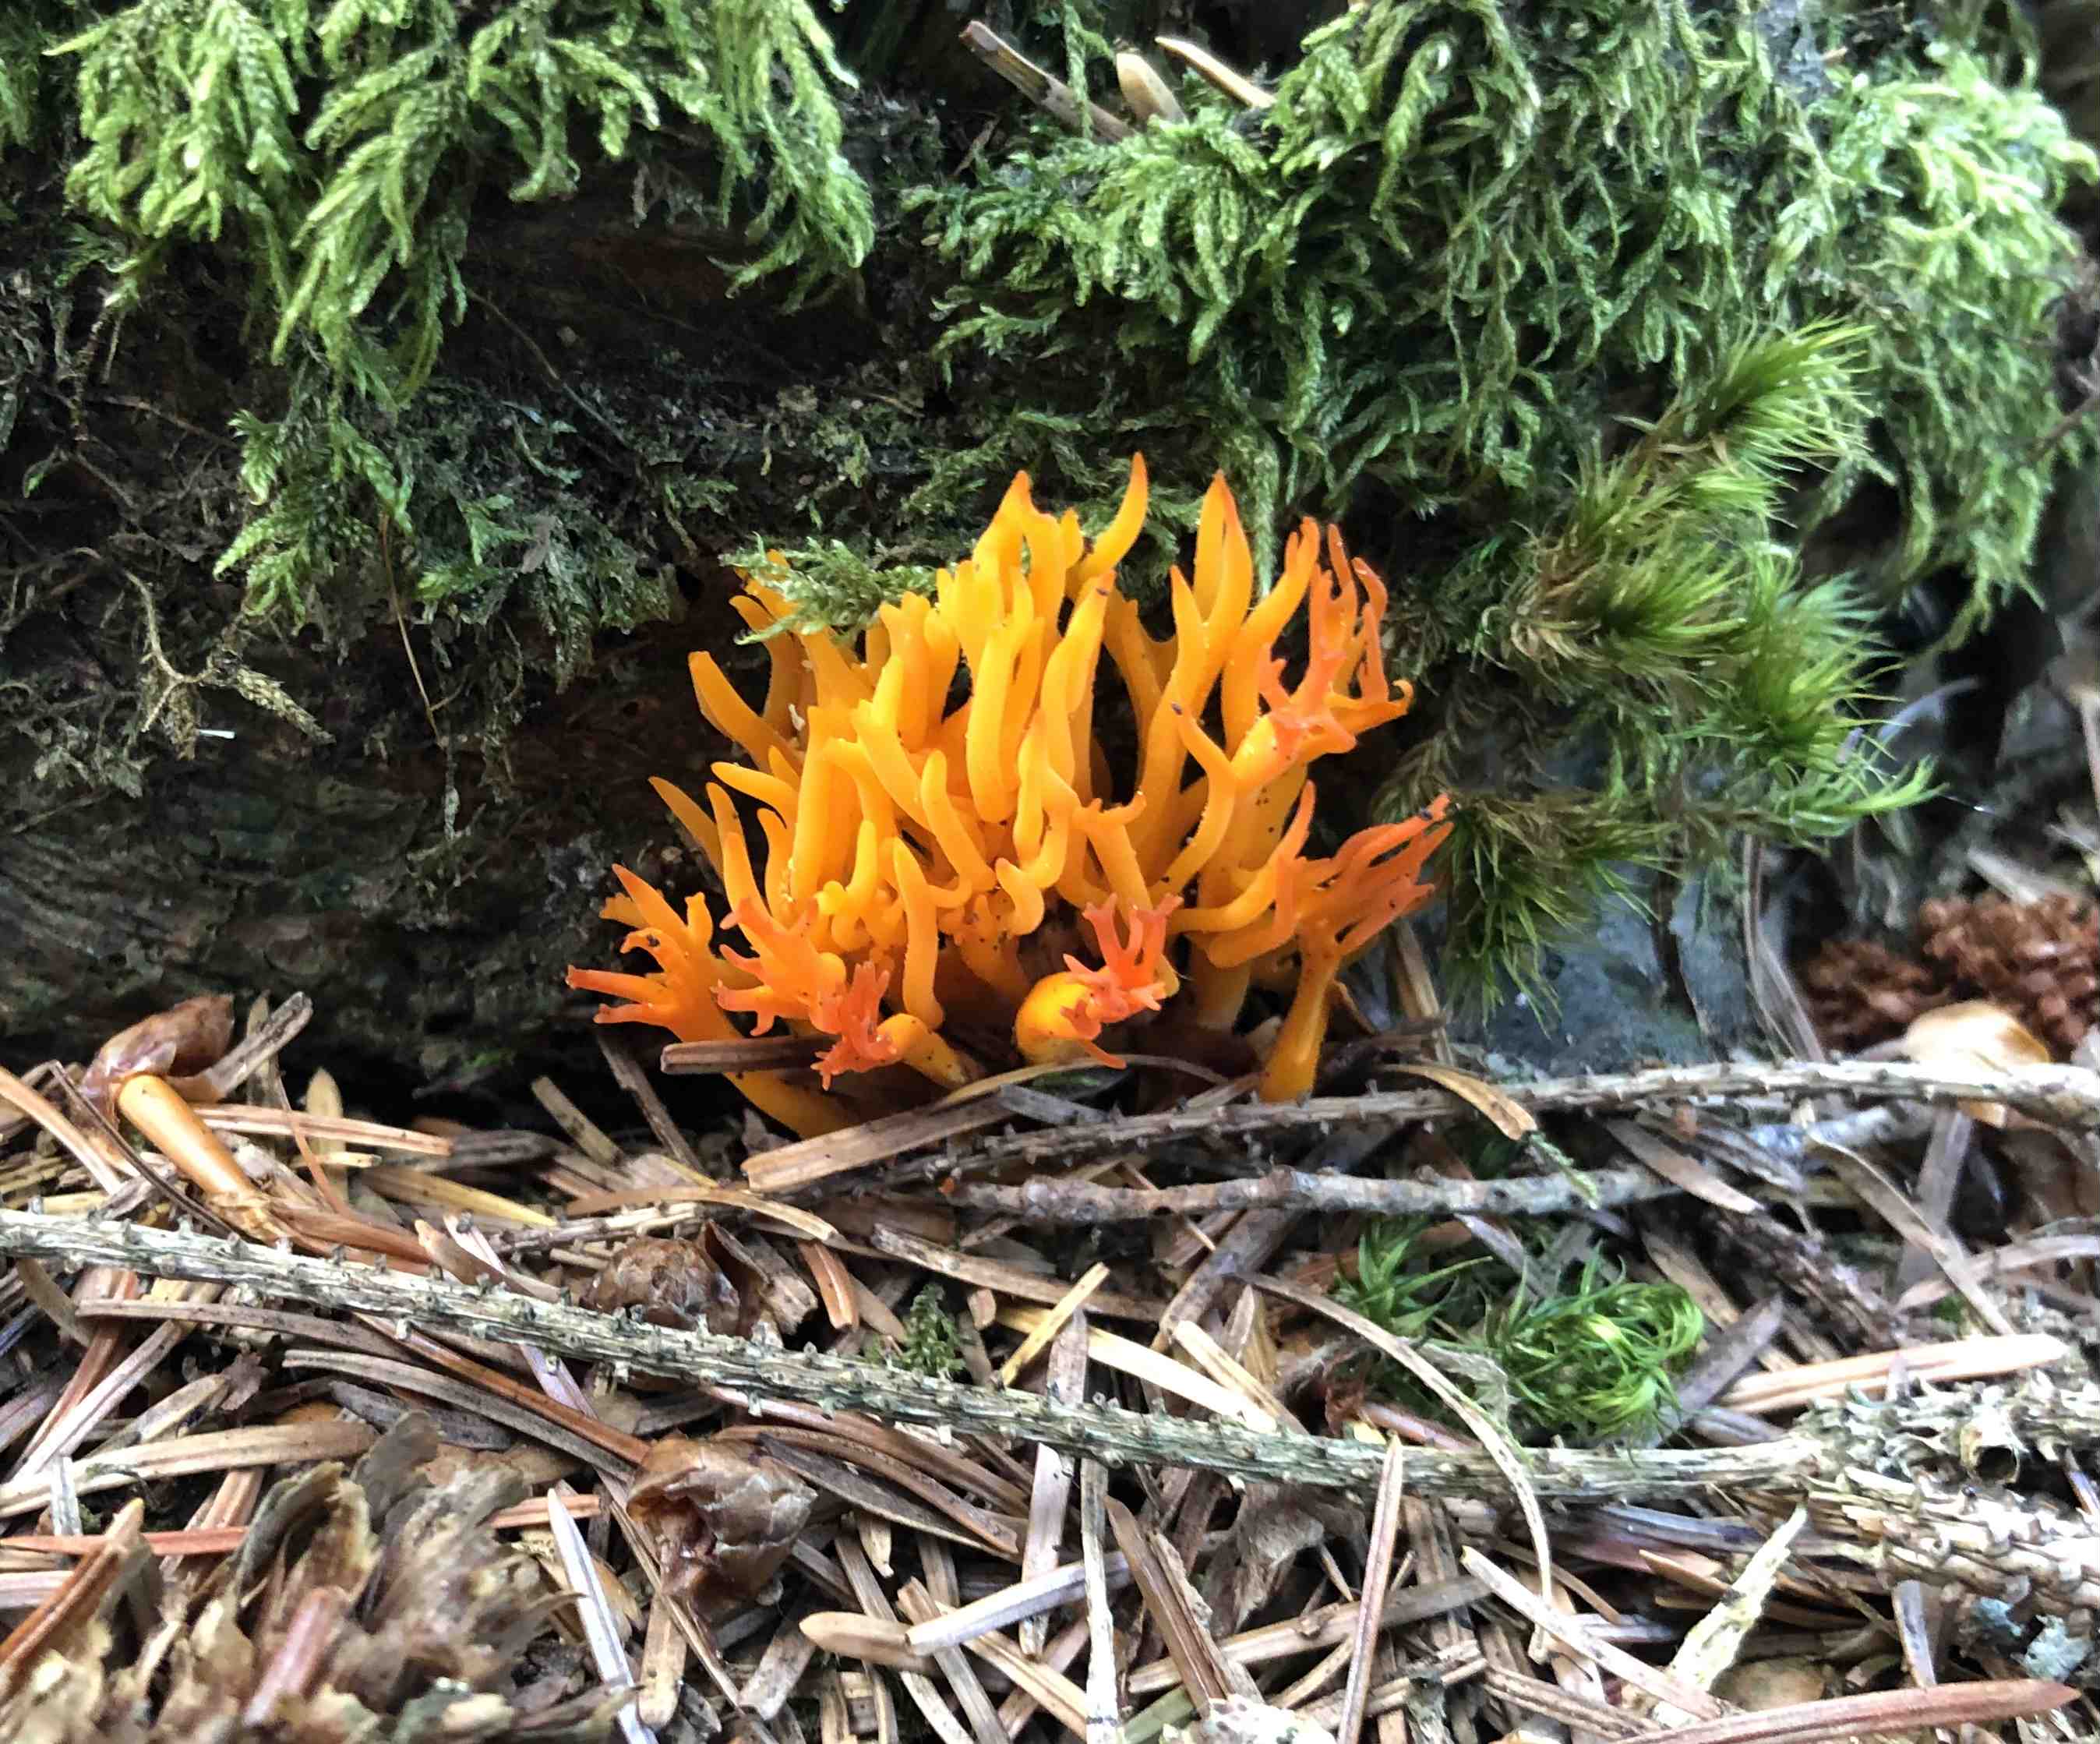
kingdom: Fungi
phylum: Basidiomycota
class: Dacrymycetes
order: Dacrymycetales
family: Dacrymycetaceae
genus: Calocera
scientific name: Calocera viscosa
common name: almindelig guldgaffel
